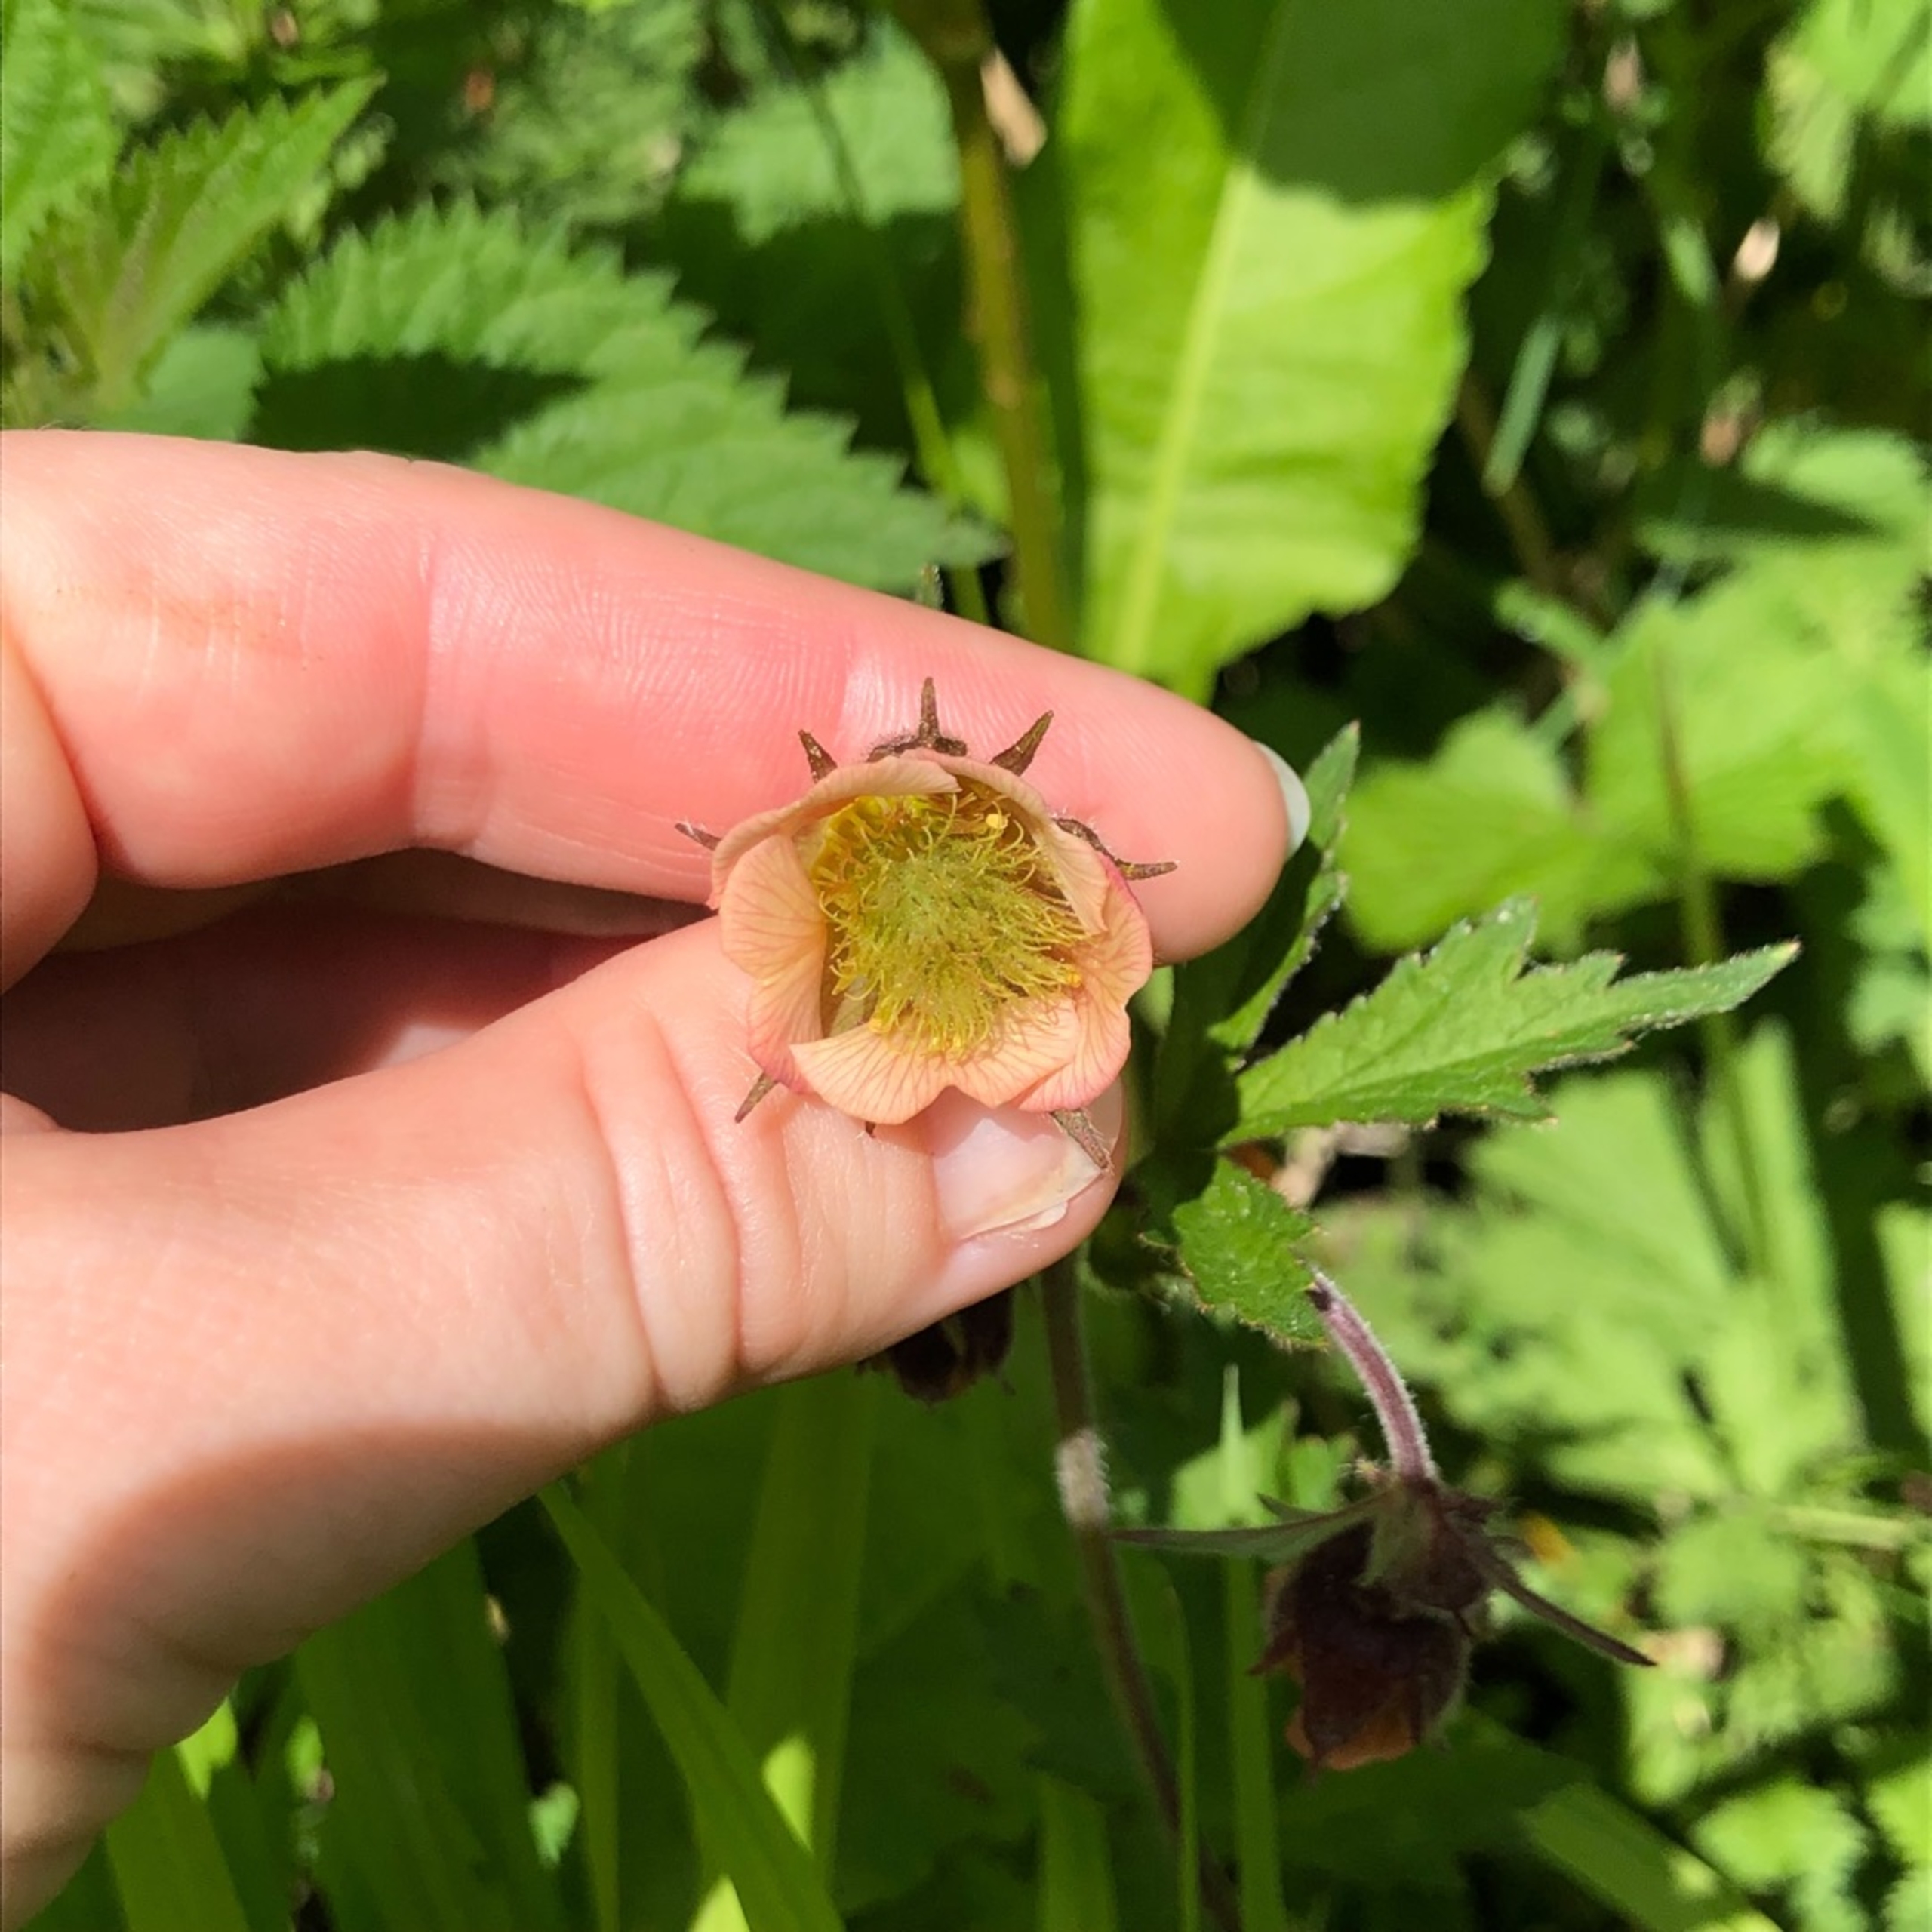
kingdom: Plantae
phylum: Tracheophyta
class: Magnoliopsida
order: Rosales
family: Rosaceae
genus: Geum
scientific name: Geum rivale
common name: Eng-nellikerod
